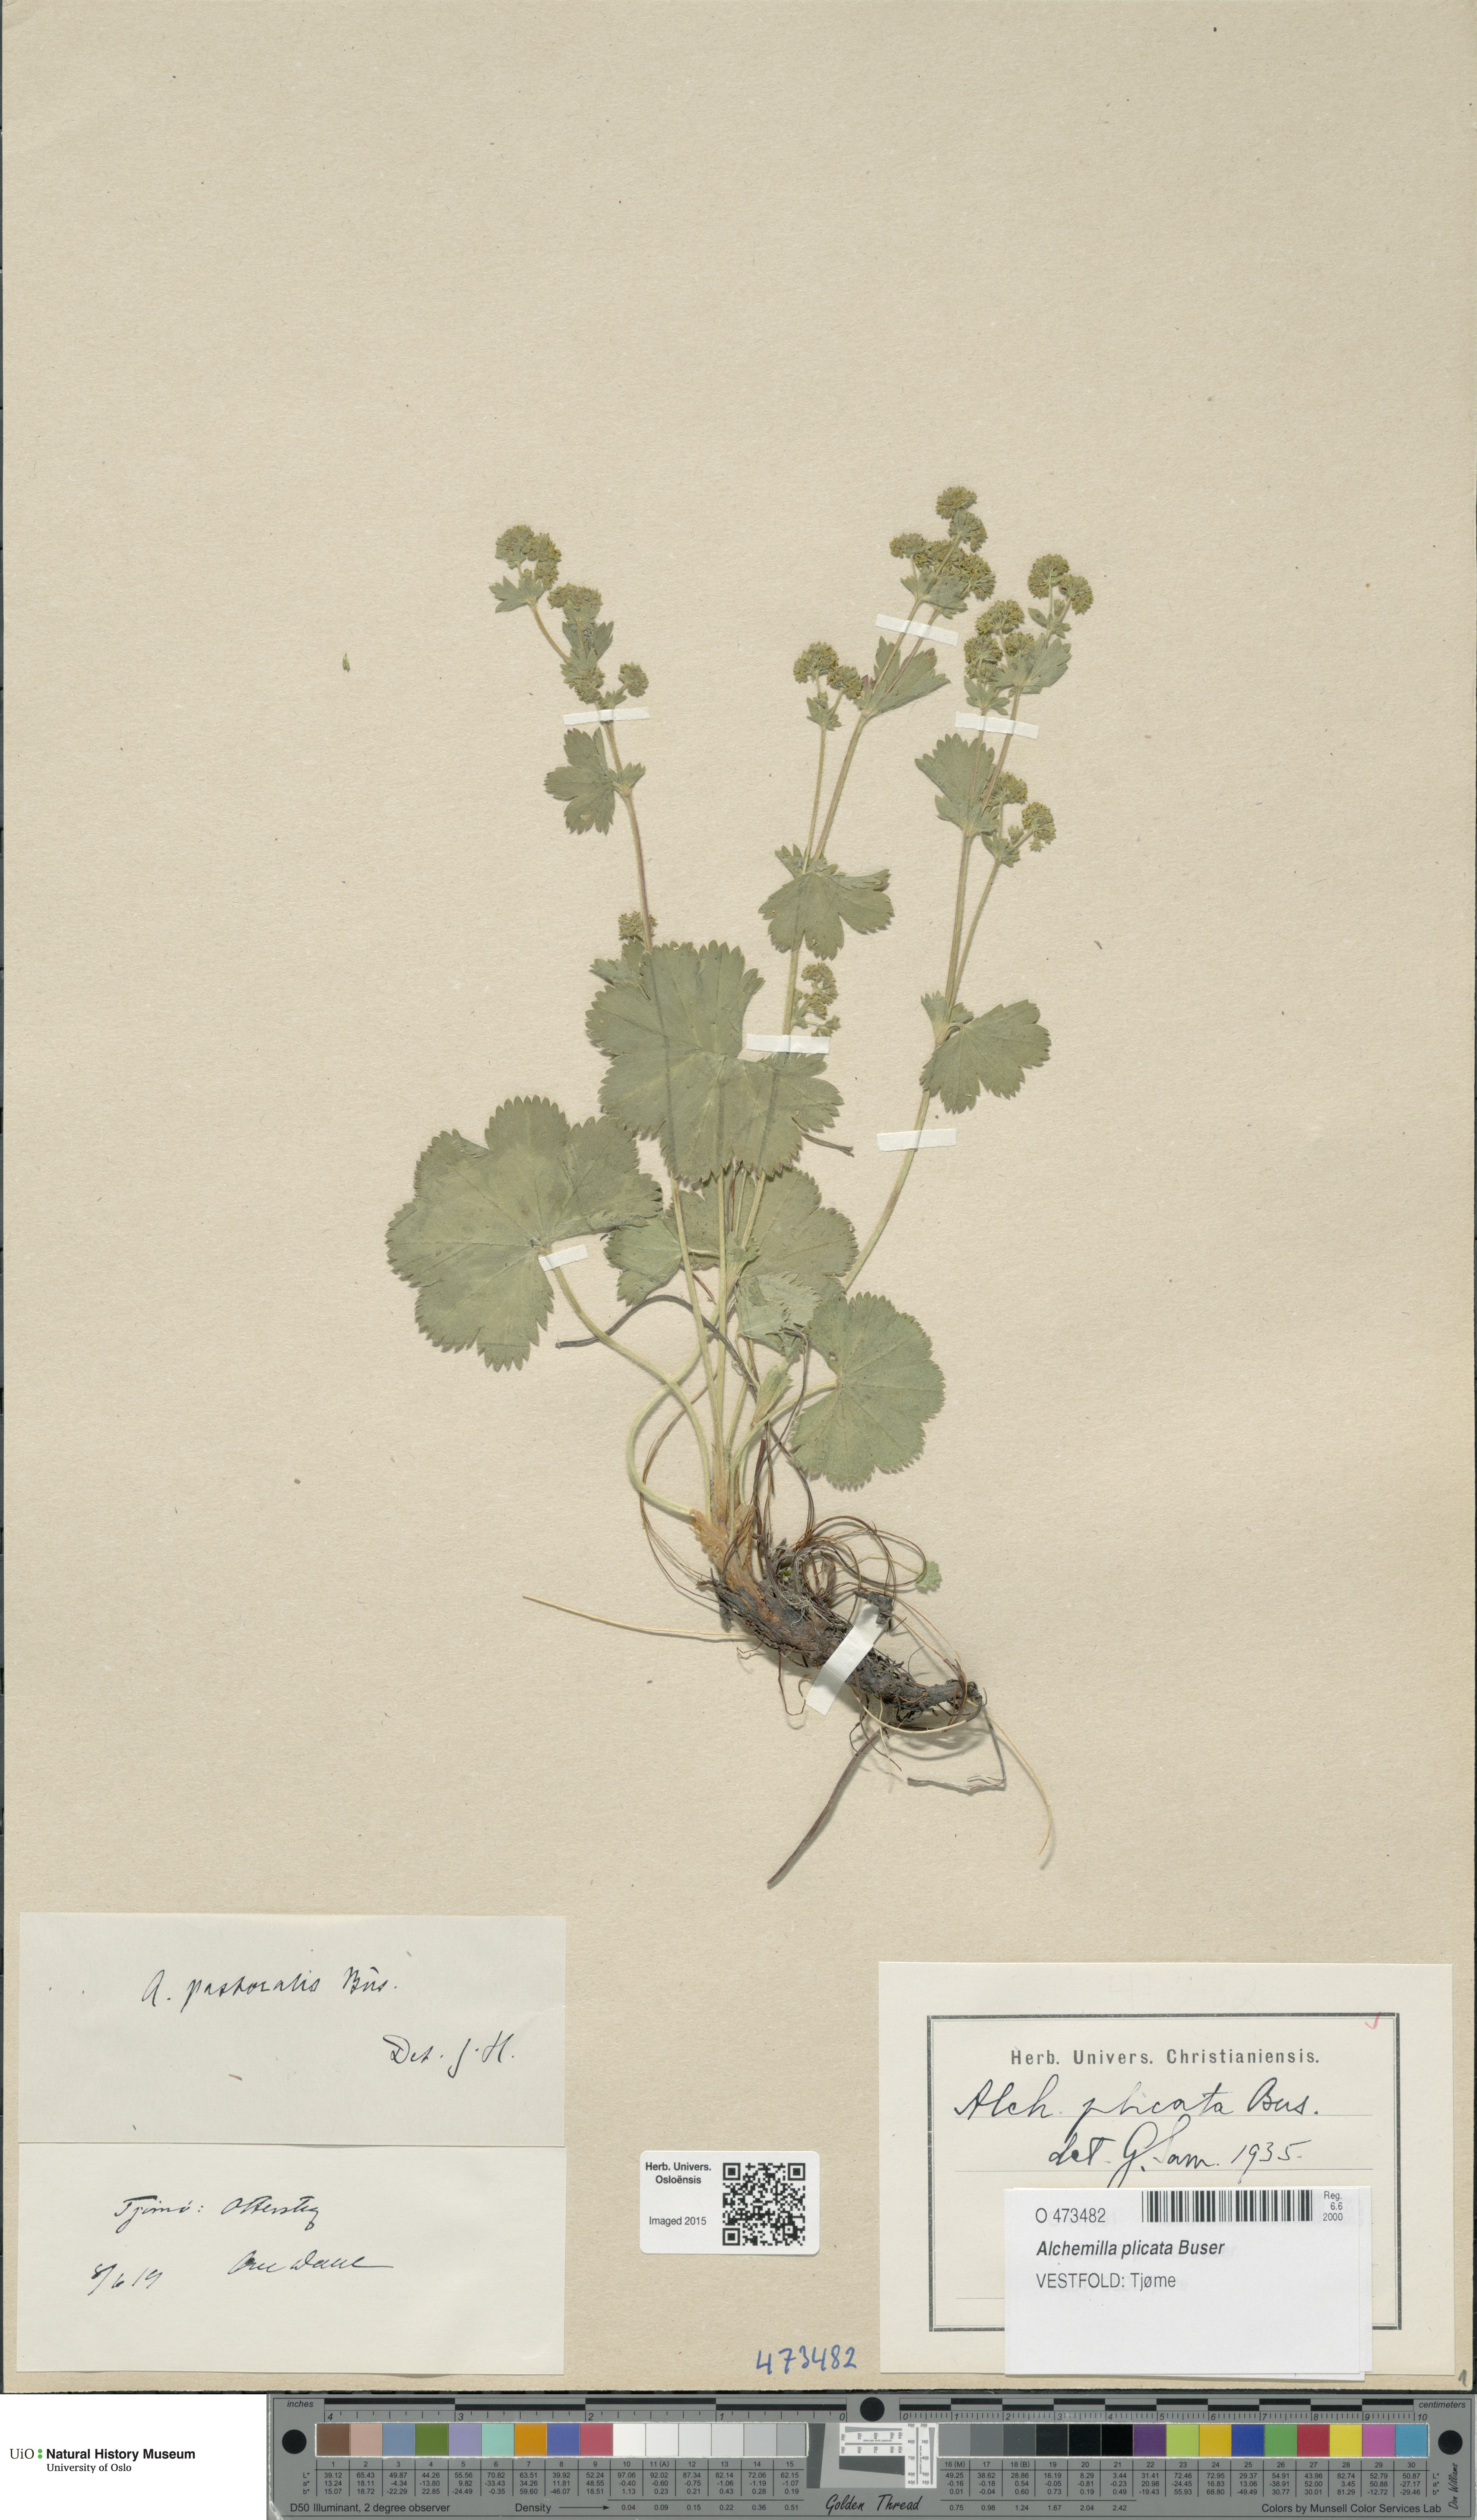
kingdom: Plantae
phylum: Tracheophyta
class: Magnoliopsida
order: Rosales
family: Rosaceae
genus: Alchemilla
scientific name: Alchemilla plicata
